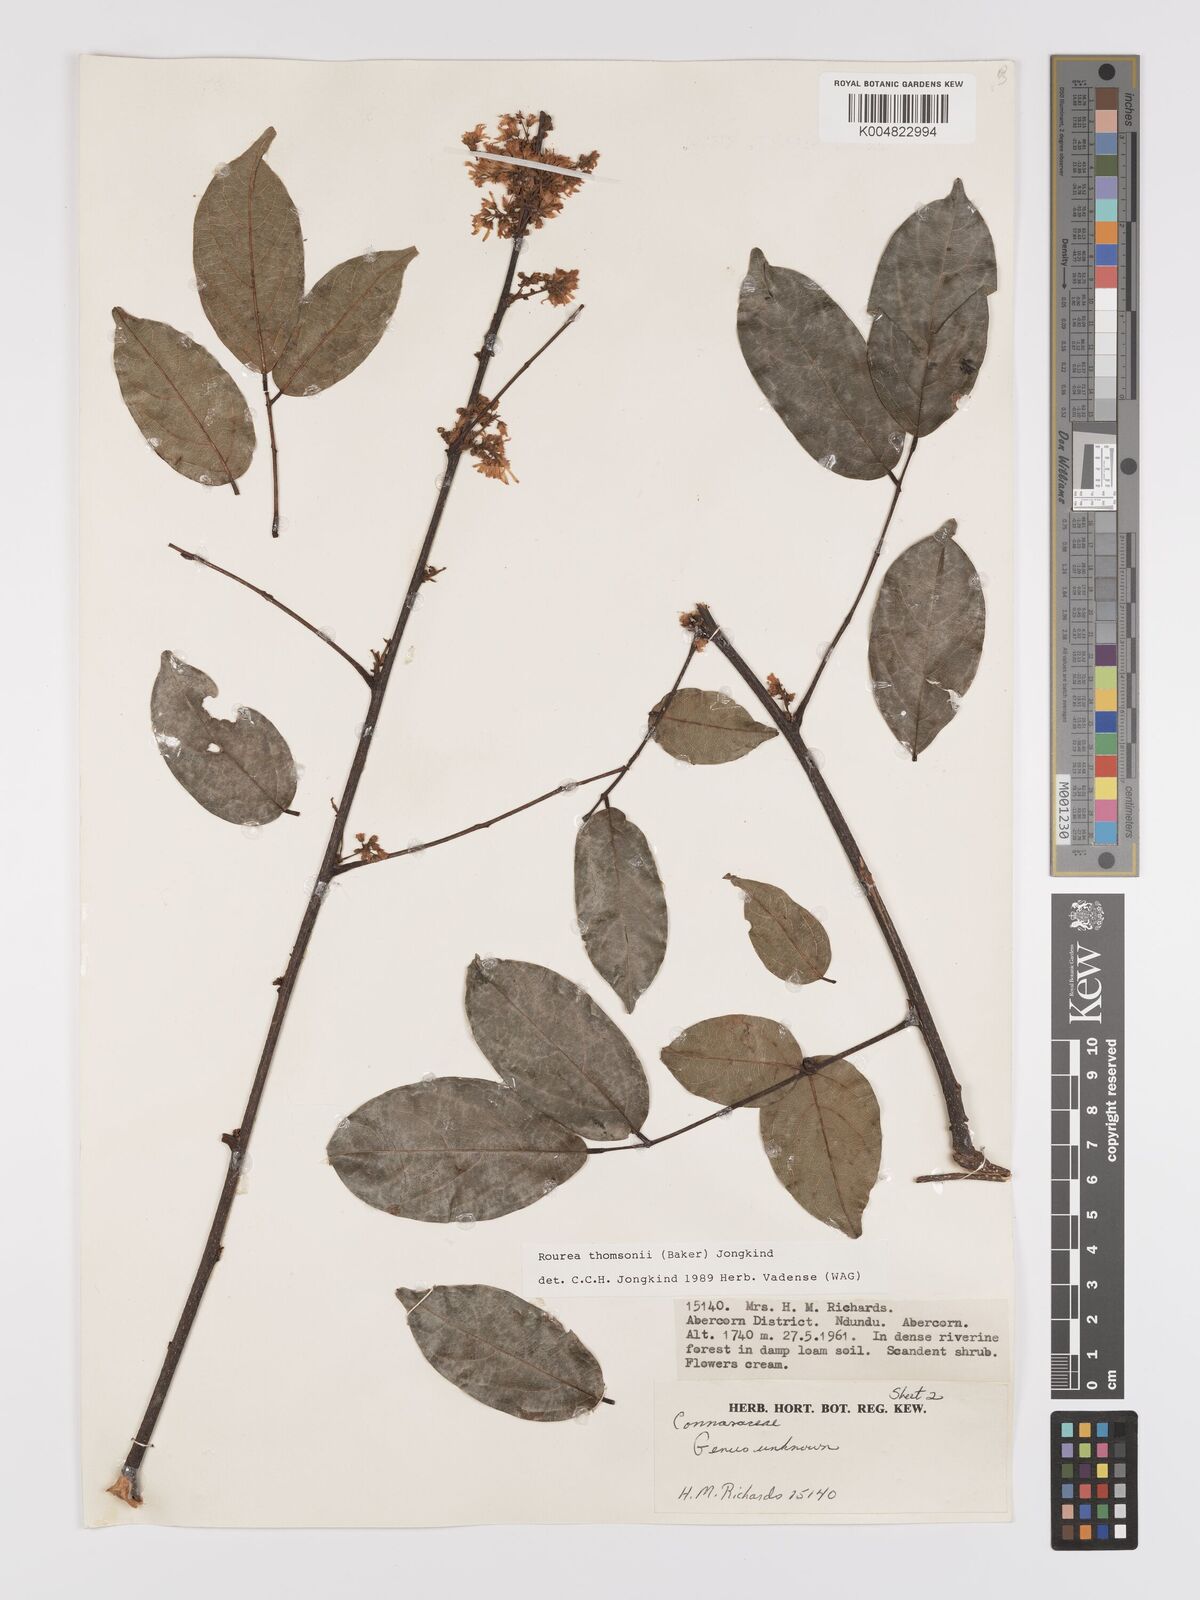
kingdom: Plantae
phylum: Tracheophyta
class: Magnoliopsida
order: Oxalidales
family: Connaraceae
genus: Rourea
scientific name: Rourea thomsonii
